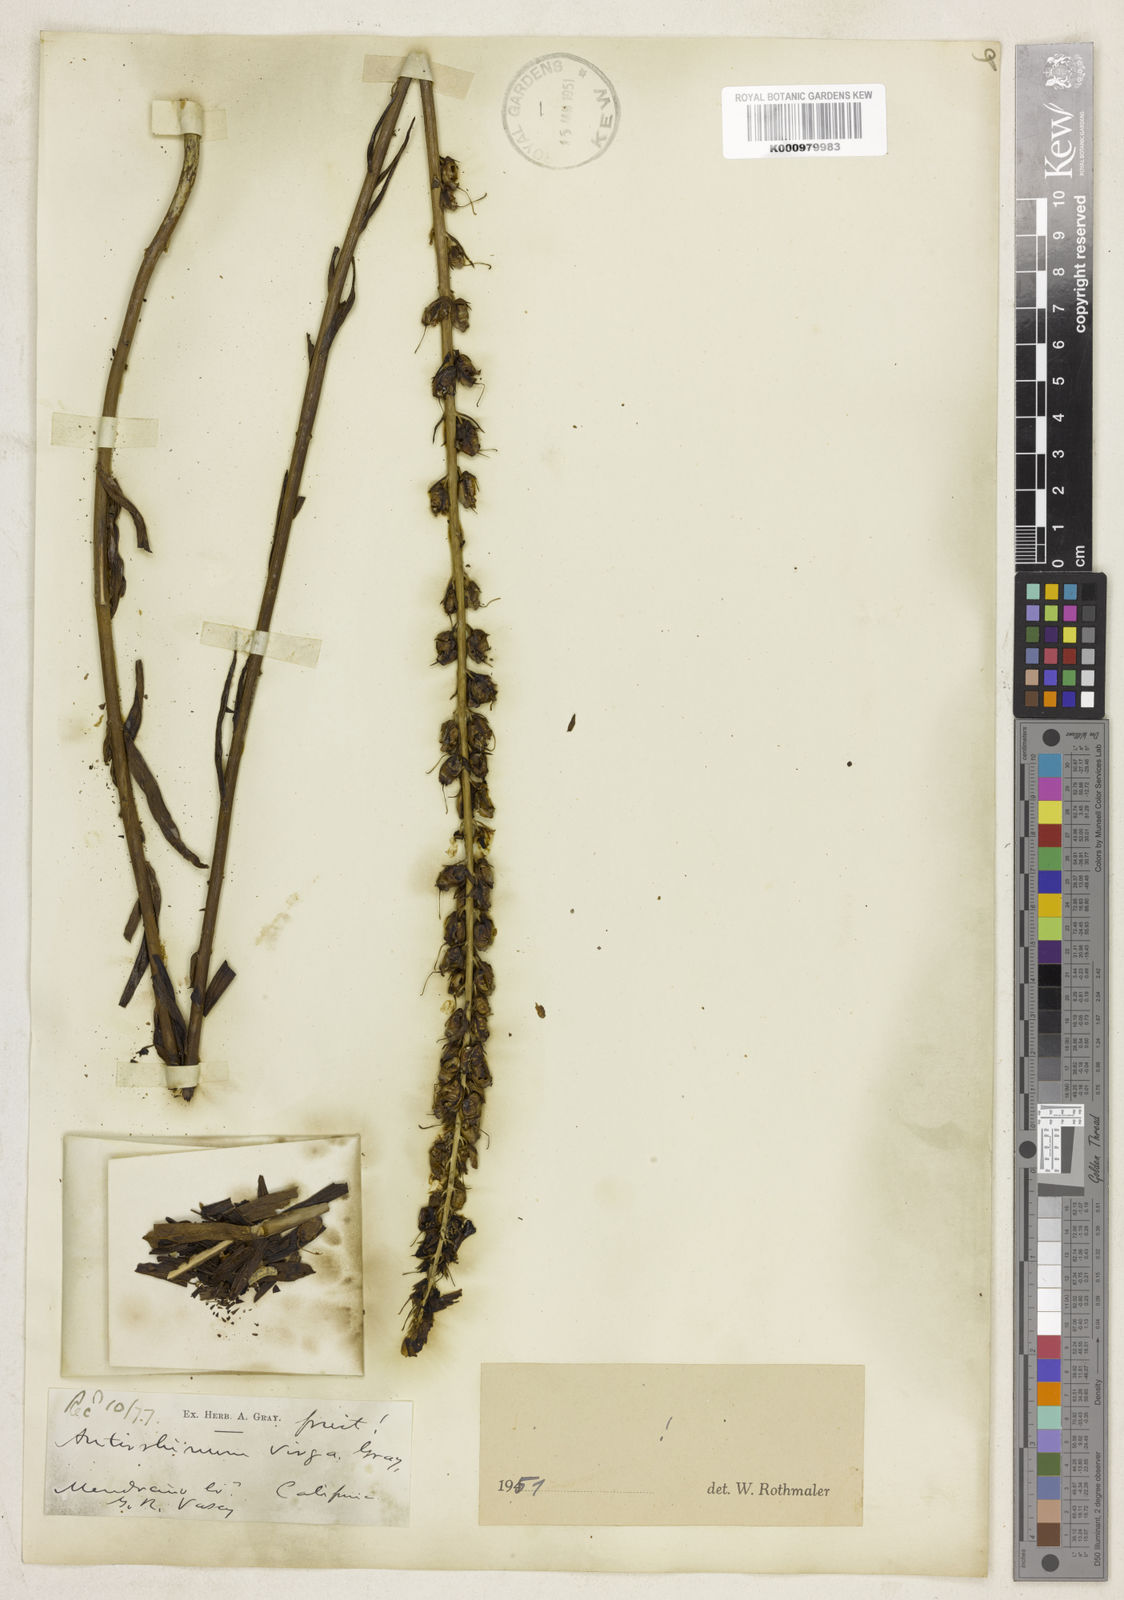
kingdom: Plantae
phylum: Tracheophyta
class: Magnoliopsida
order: Lamiales
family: Plantaginaceae
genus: Sairocarpus
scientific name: Sairocarpus virga
